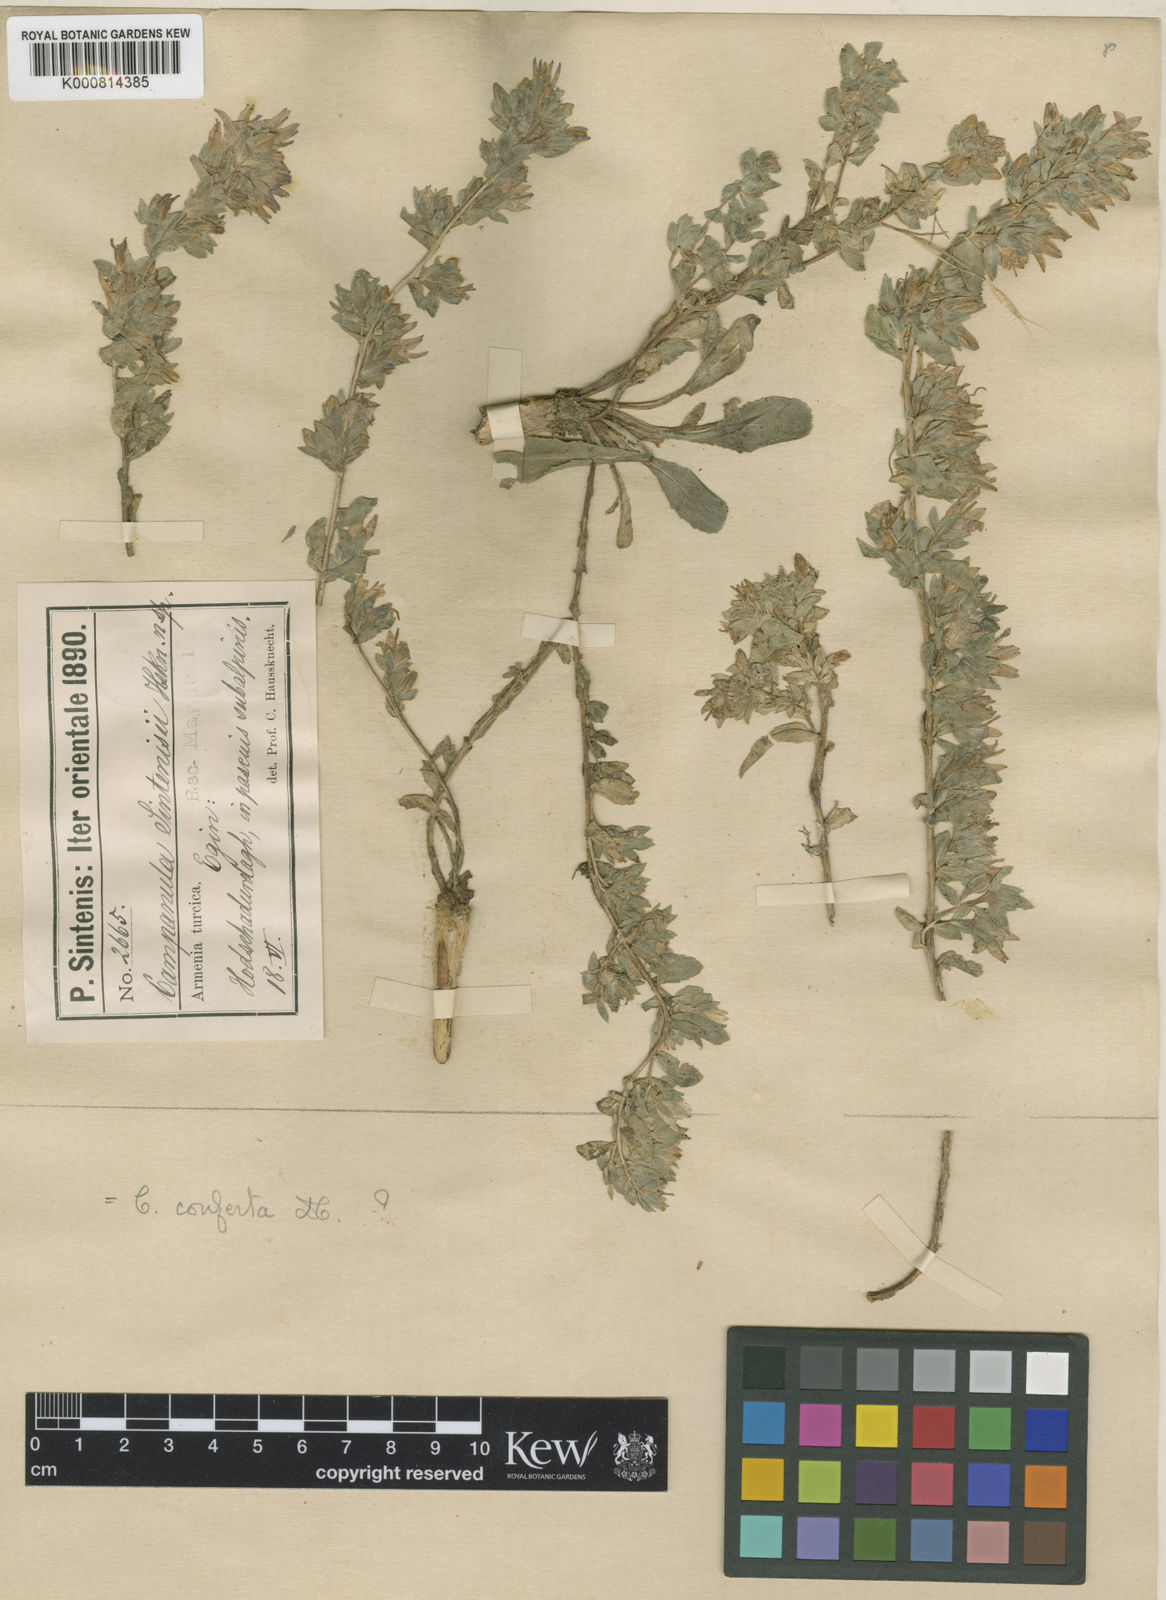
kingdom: Plantae
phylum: Tracheophyta
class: Magnoliopsida
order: Asterales
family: Campanulaceae
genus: Campanula
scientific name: Campanula conferta
